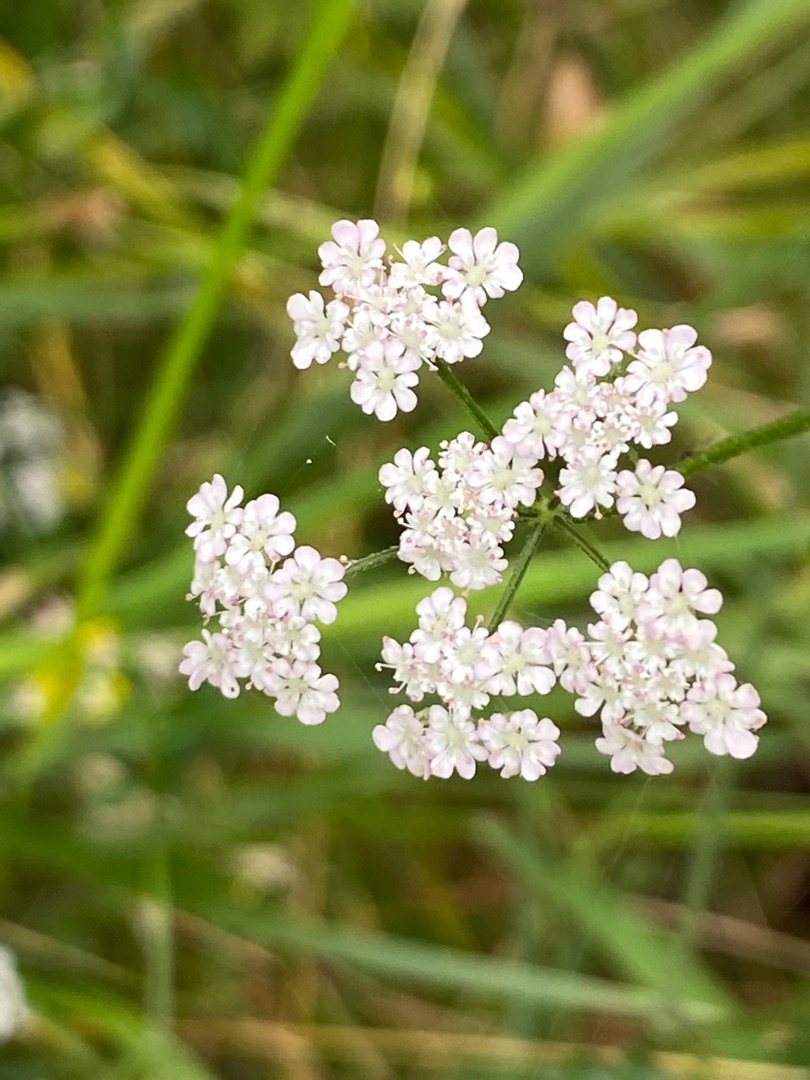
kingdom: Plantae
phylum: Tracheophyta
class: Magnoliopsida
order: Apiales
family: Apiaceae
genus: Torilis
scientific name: Torilis japonica
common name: Hvas randfrø
